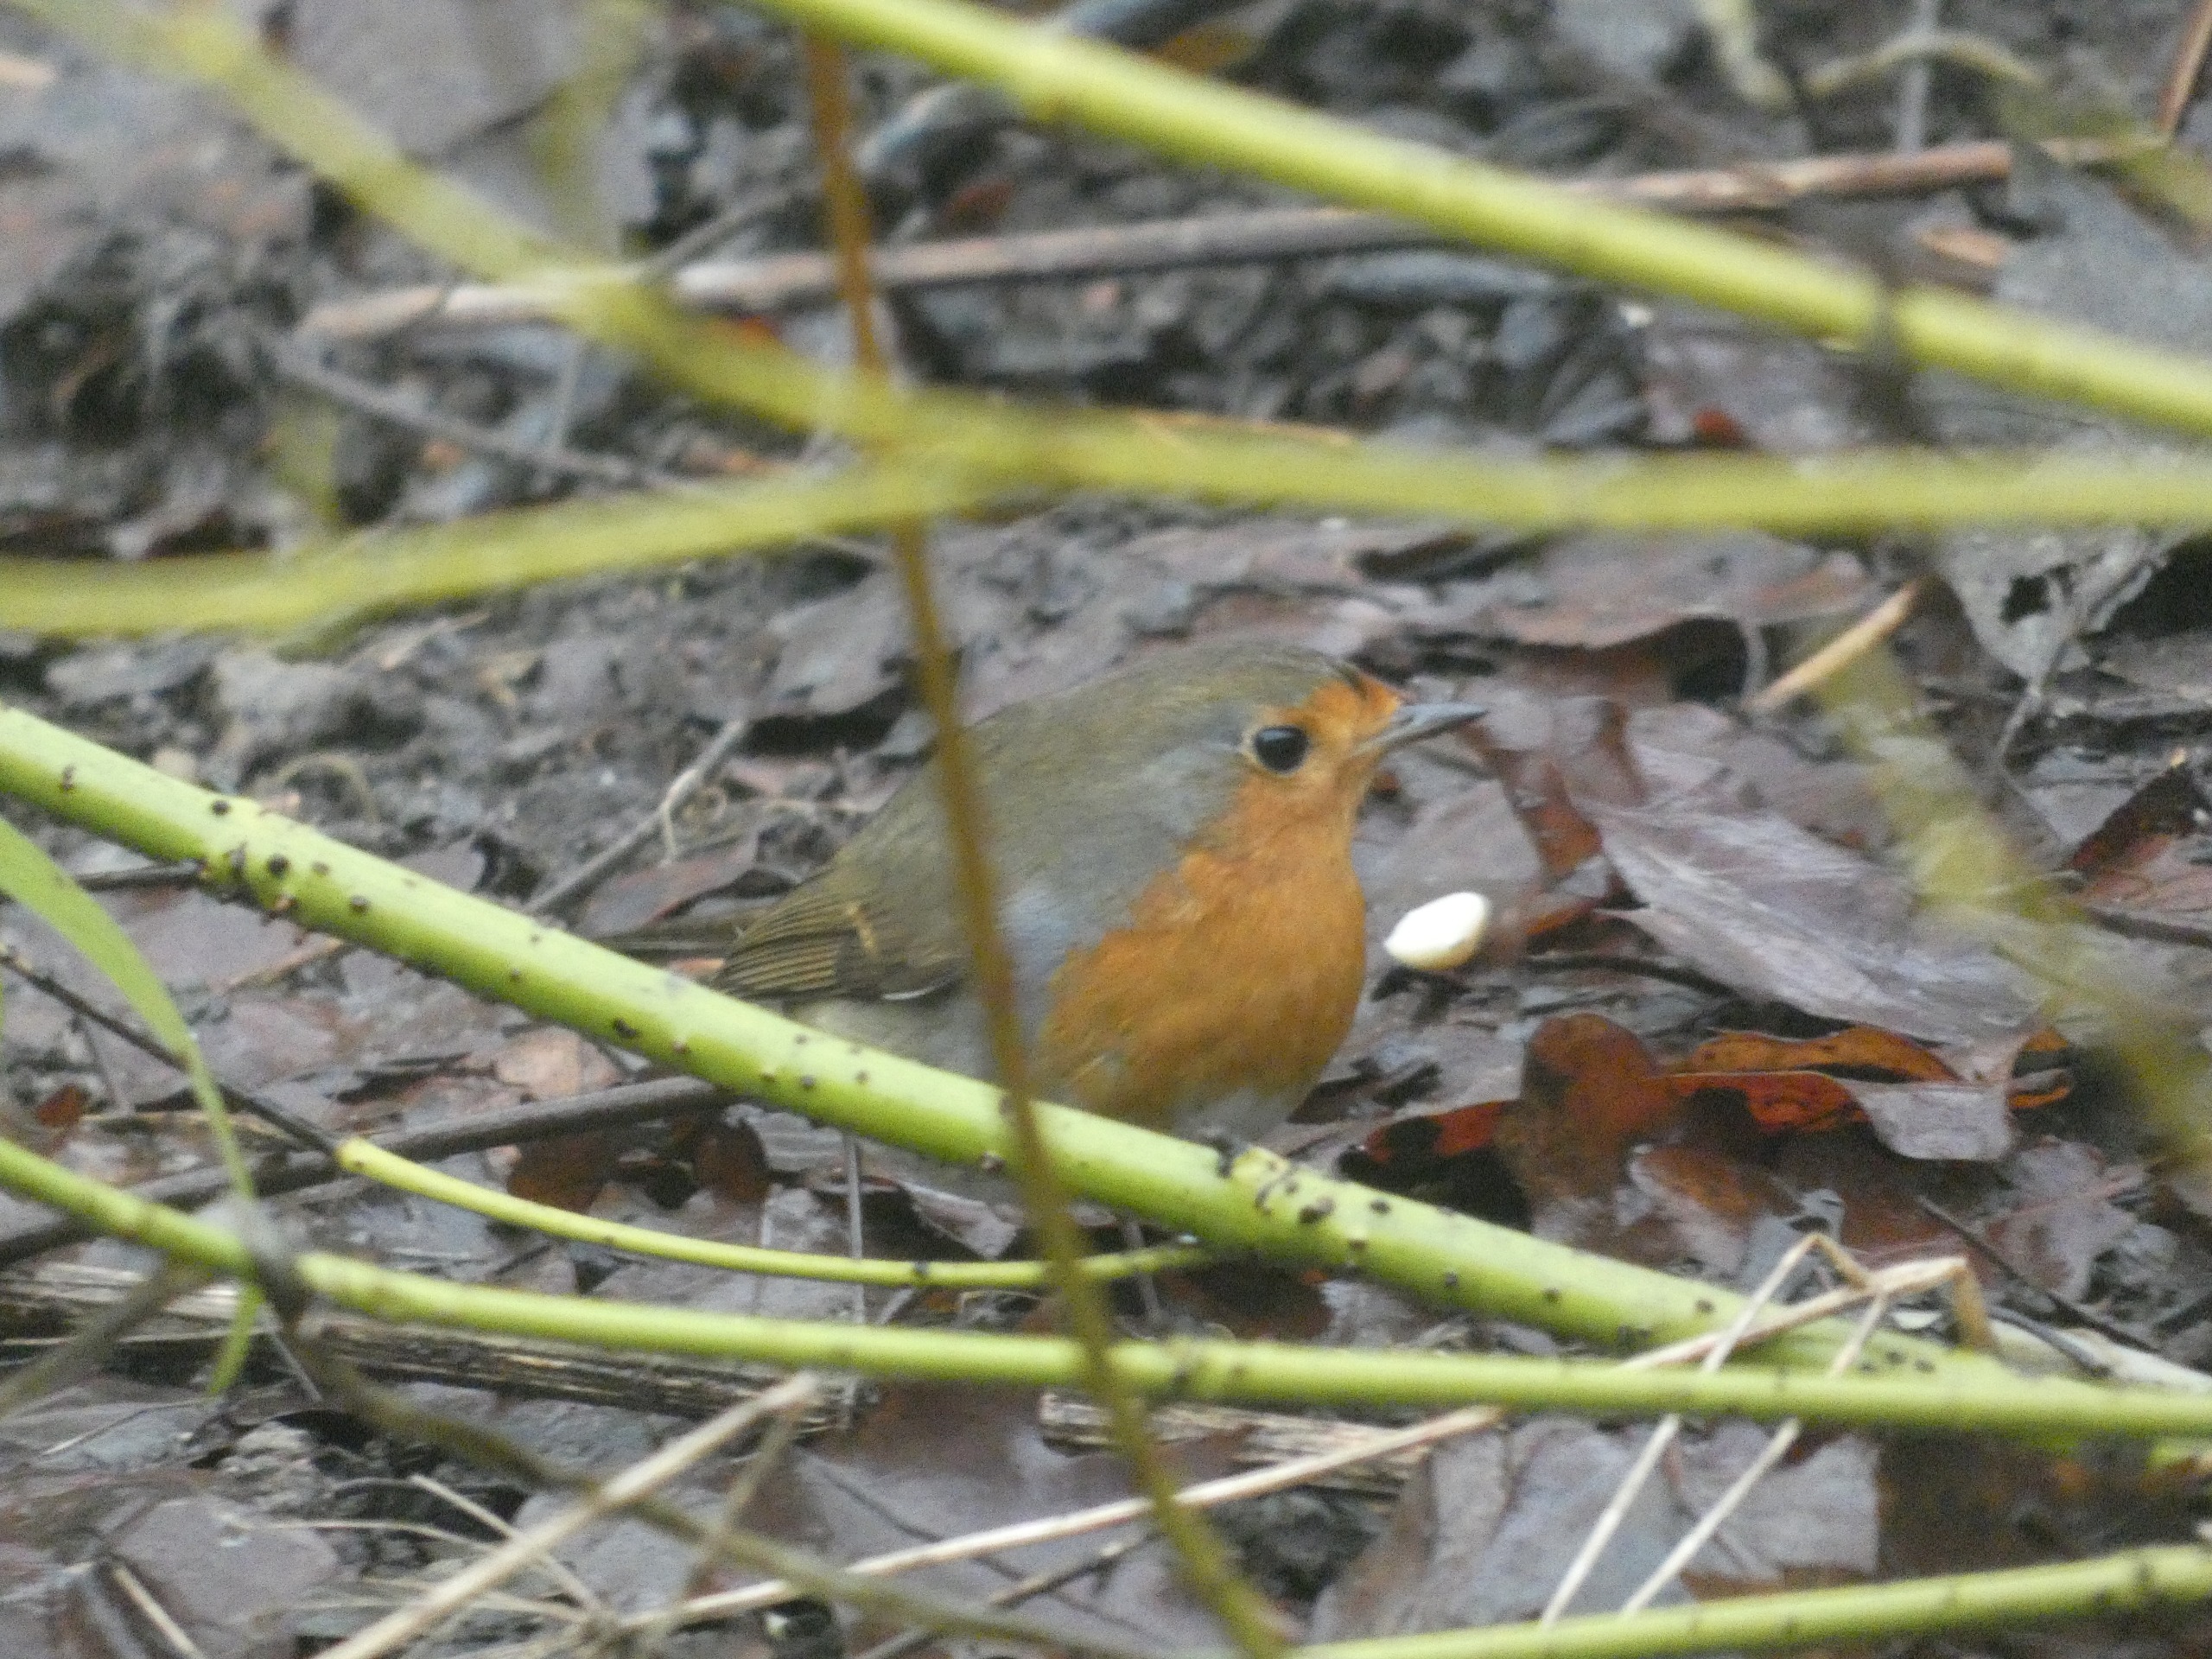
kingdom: Animalia
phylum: Chordata
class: Aves
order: Passeriformes
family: Muscicapidae
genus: Erithacus
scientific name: Erithacus rubecula
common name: Rødhals/rødkælk
